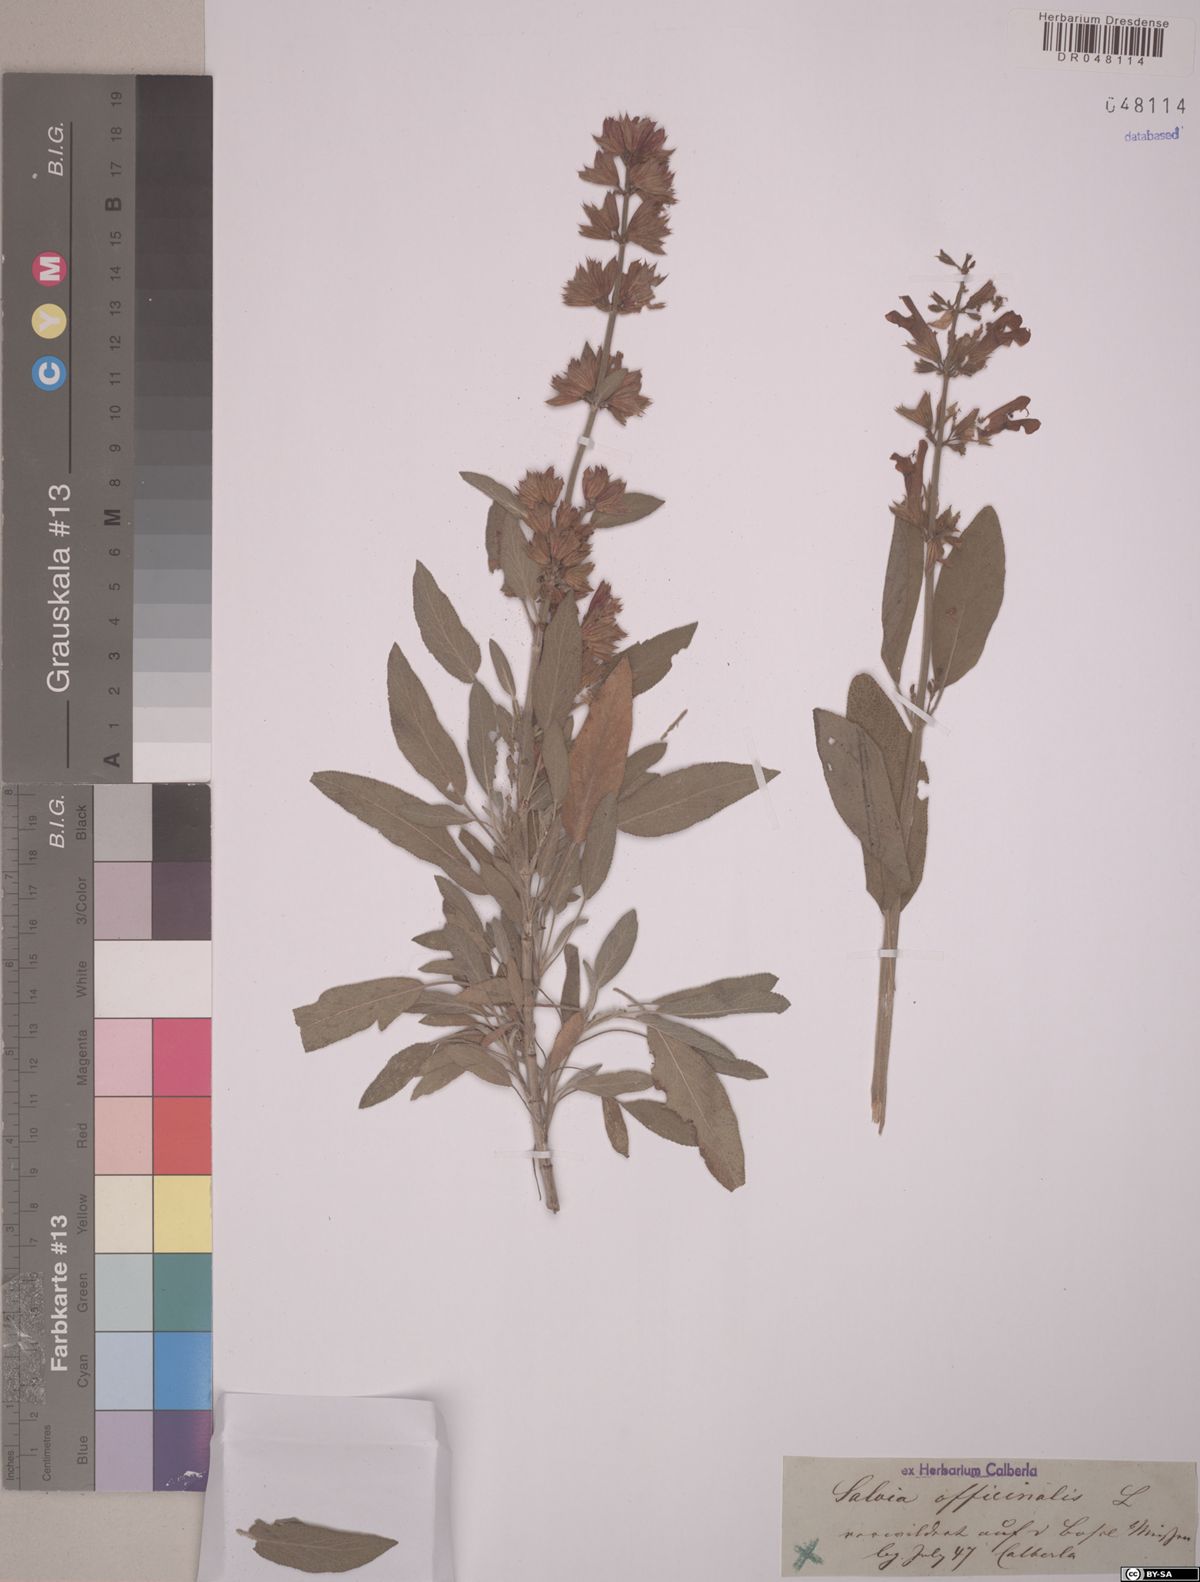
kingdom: Plantae
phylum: Tracheophyta
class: Magnoliopsida
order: Lamiales
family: Lamiaceae
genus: Salvia
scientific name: Salvia officinalis
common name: Sage
